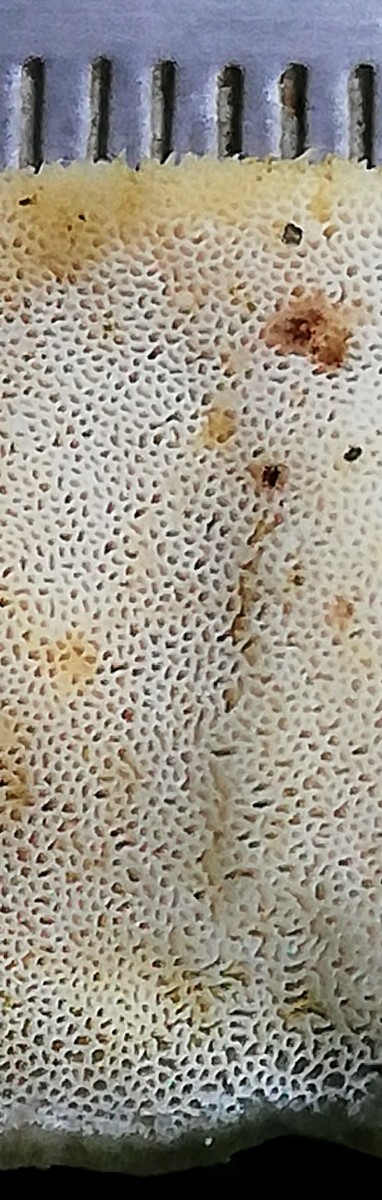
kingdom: Fungi
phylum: Basidiomycota
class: Agaricomycetes
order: Hymenochaetales
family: Oxyporaceae
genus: Oxyporus
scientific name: Oxyporus populinus
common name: sammenvokset trylleporesvamp
